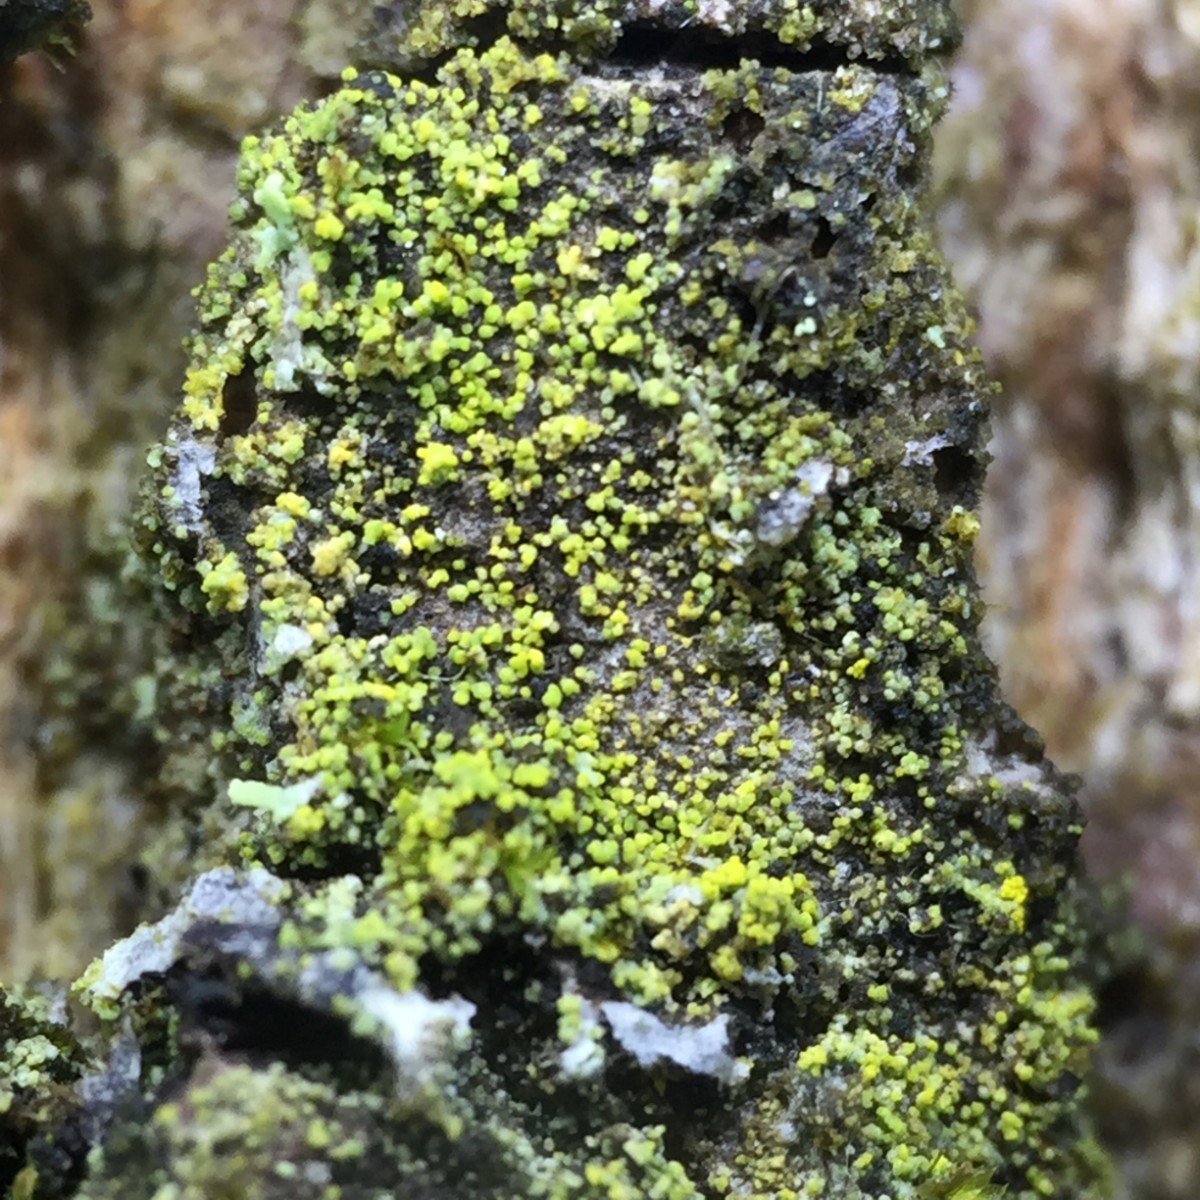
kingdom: Fungi
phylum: Ascomycota
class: Candelariomycetes
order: Candelariales
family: Candelariaceae
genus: Candelariella
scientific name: Candelariella xanthostigma
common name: kornet æggeblommelav
